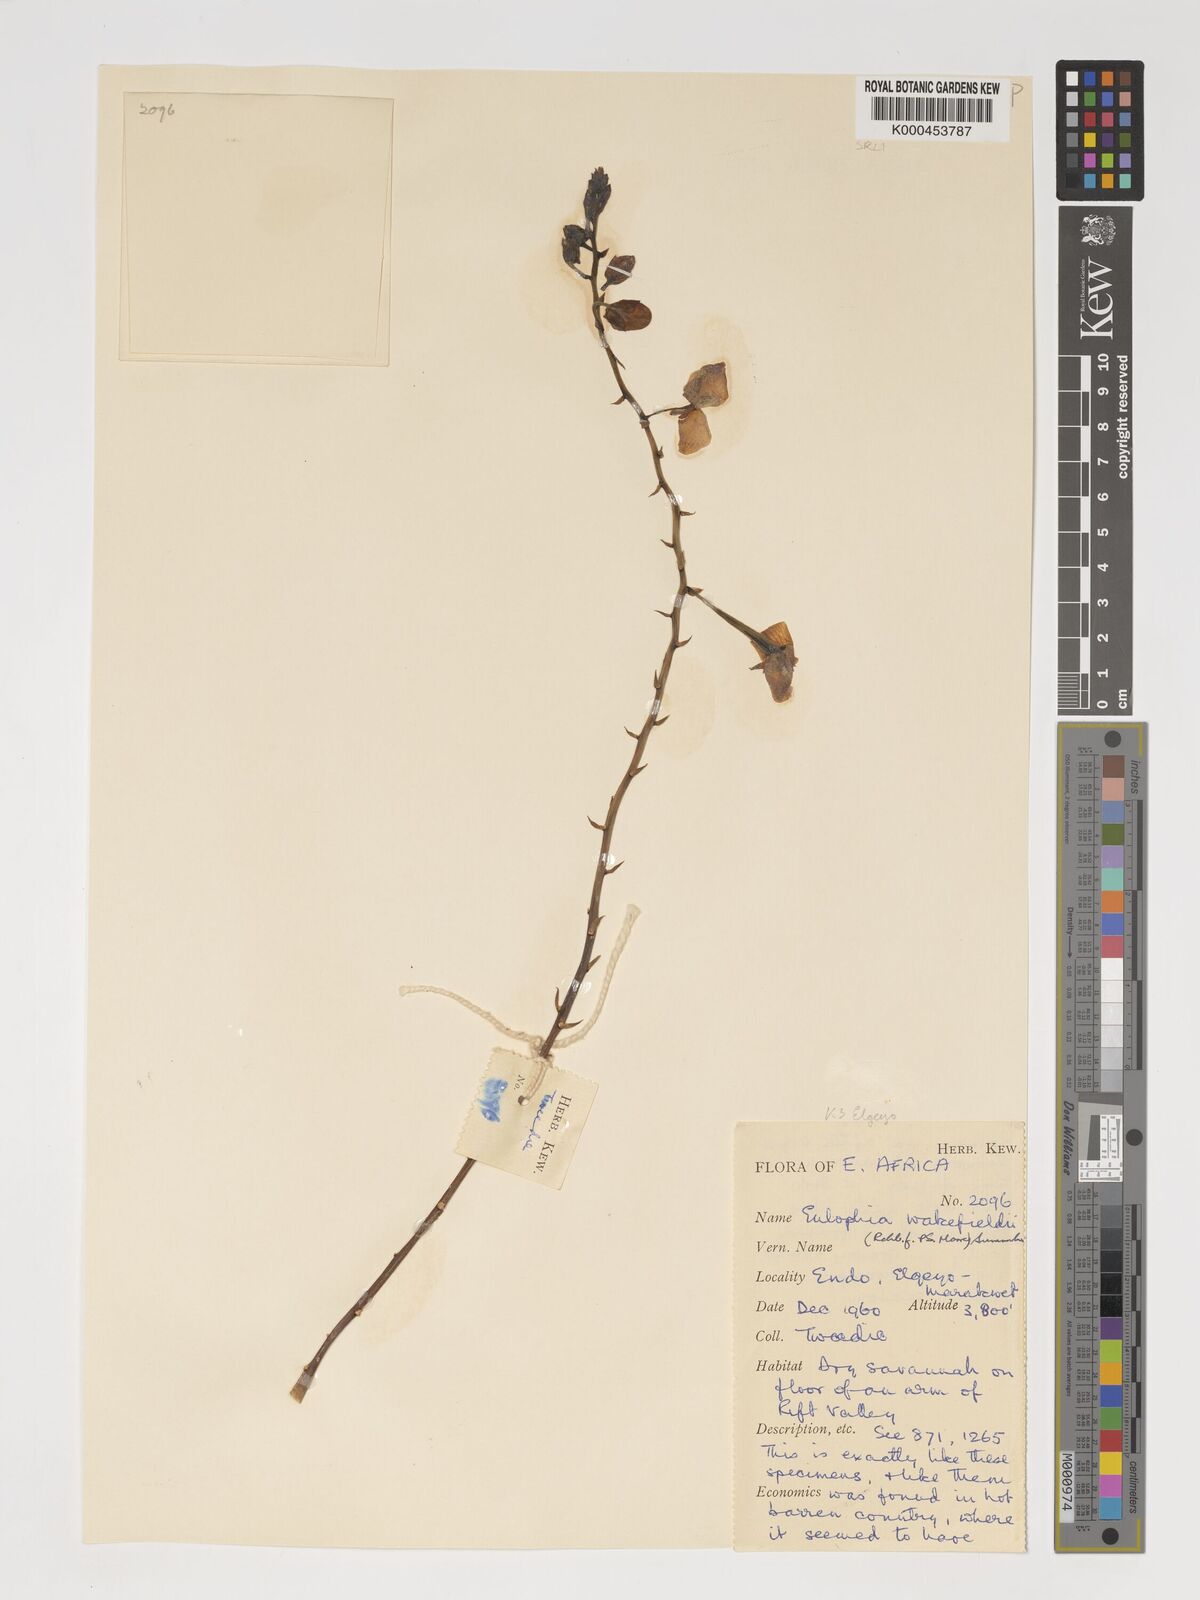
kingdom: Plantae
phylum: Tracheophyta
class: Liliopsida
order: Asparagales
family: Orchidaceae
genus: Eulophia
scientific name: Eulophia speciosa
